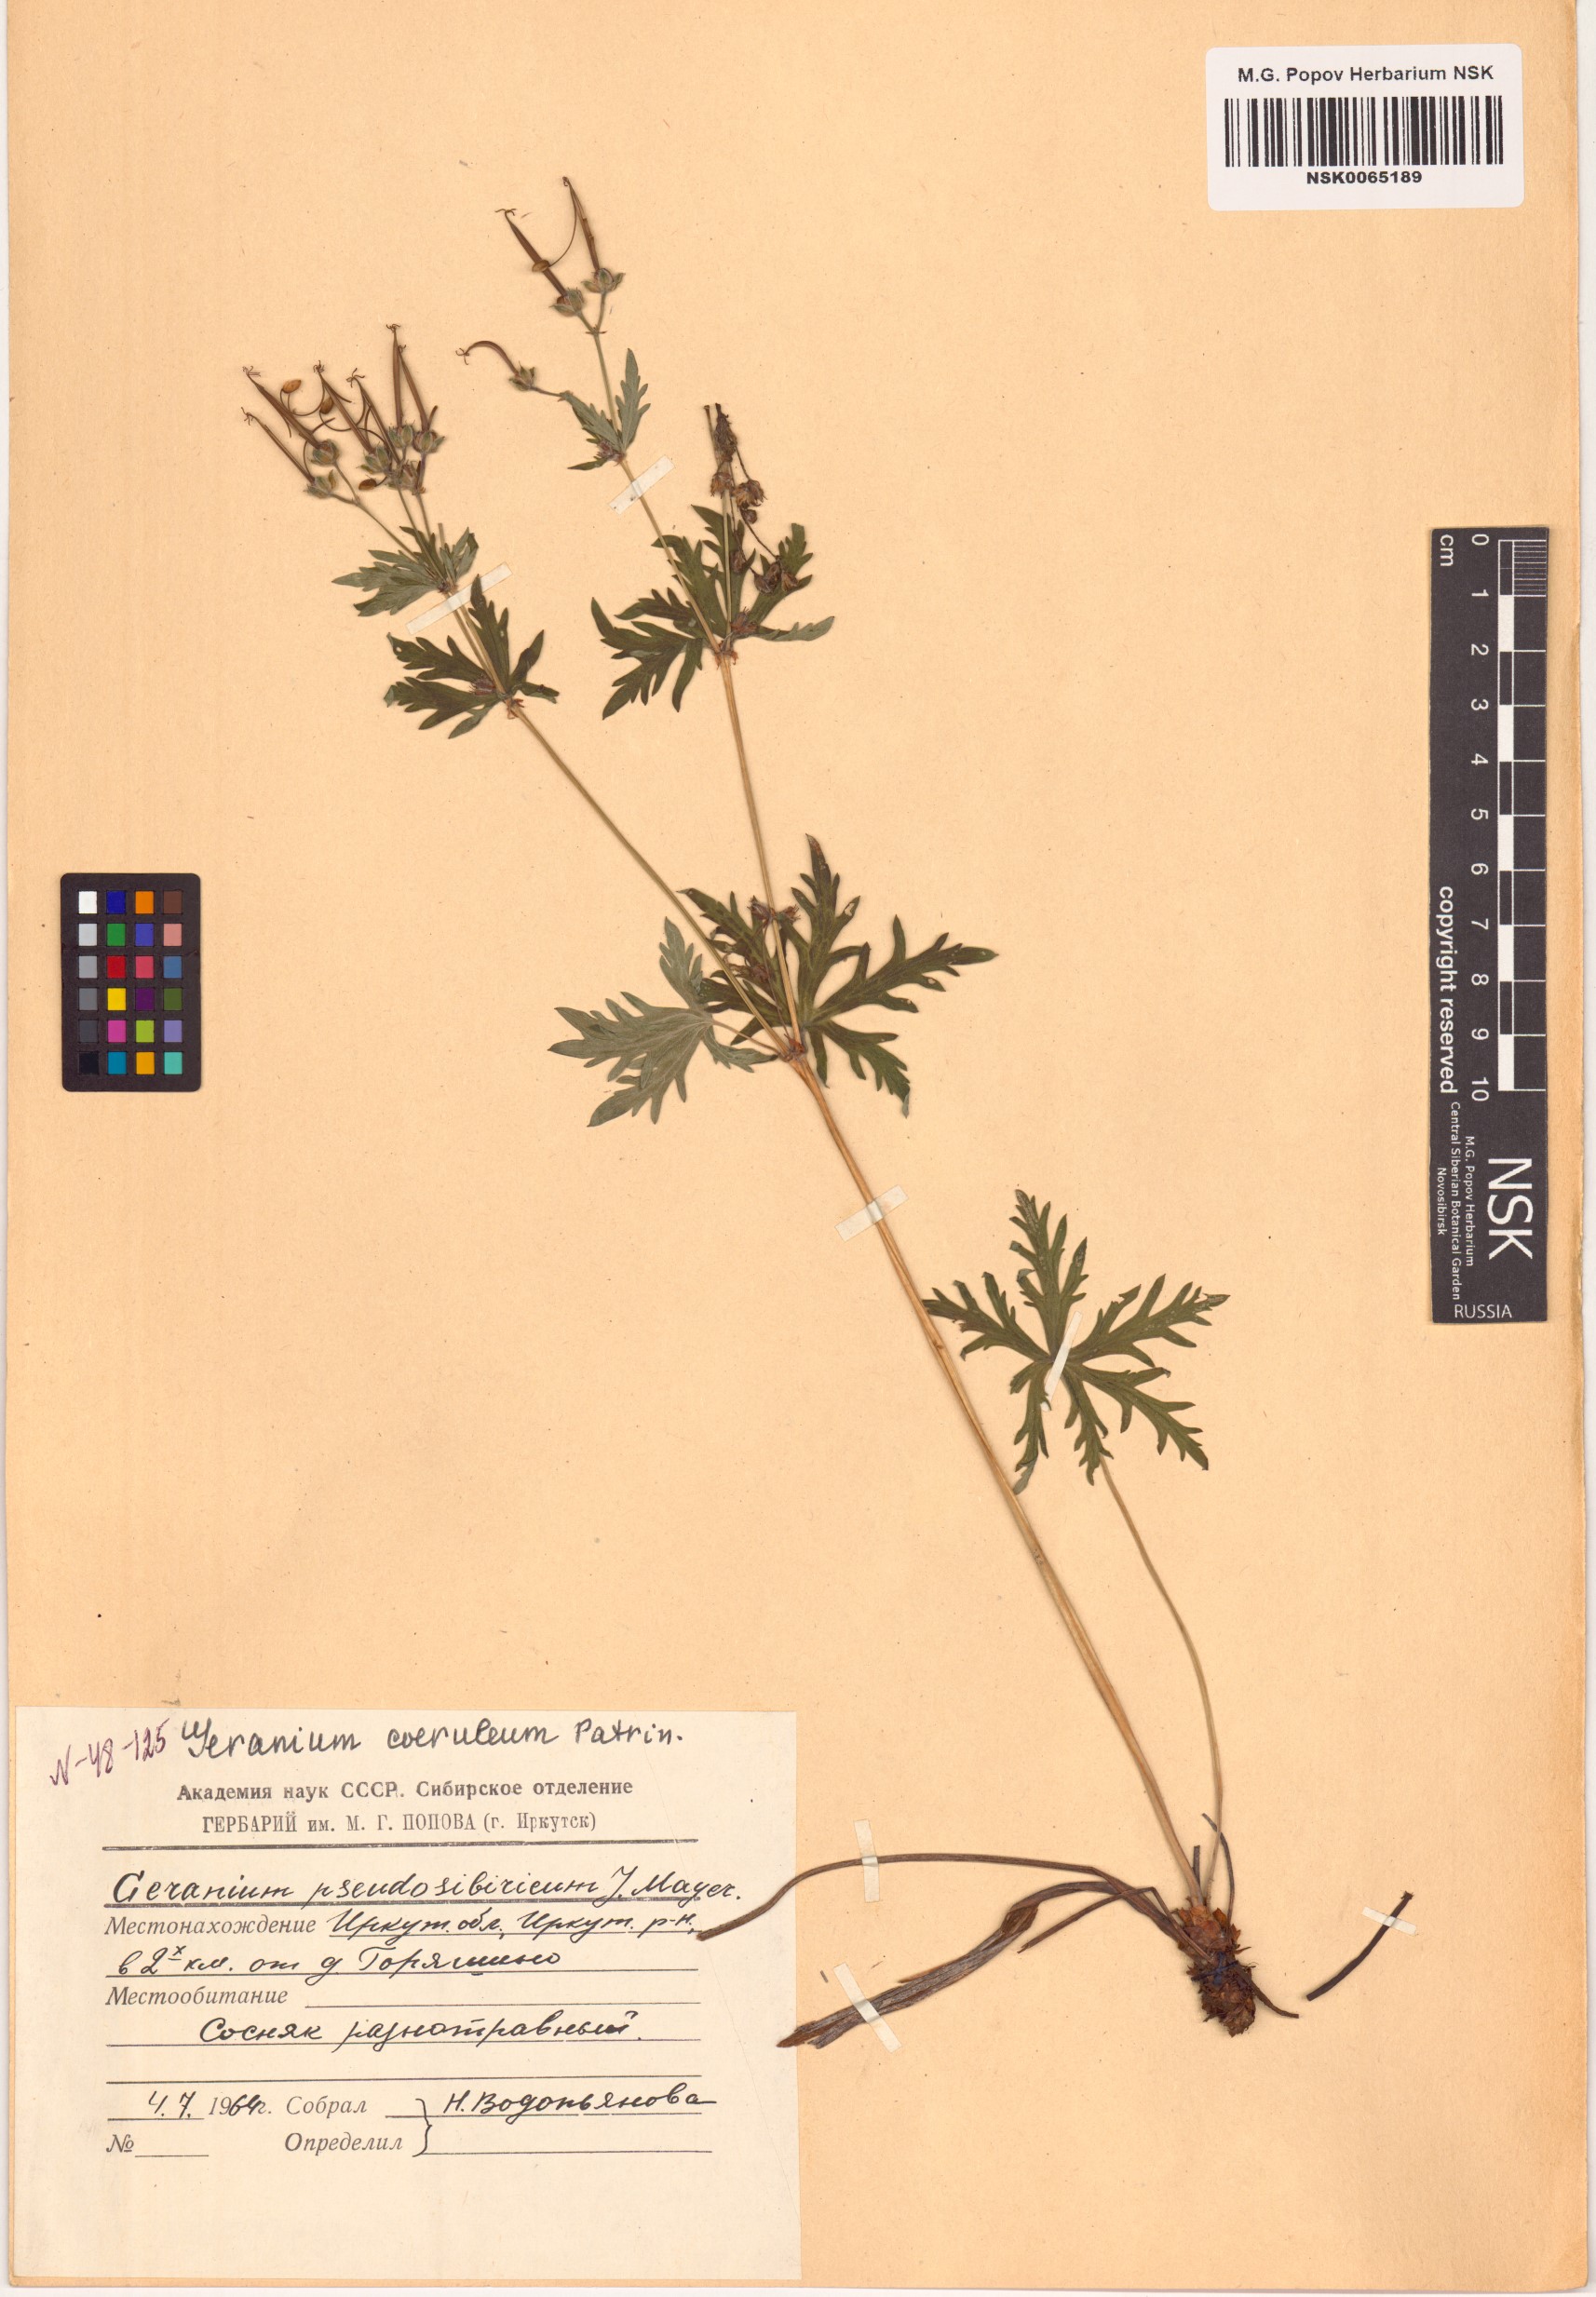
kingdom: Plantae
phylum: Tracheophyta
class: Magnoliopsida
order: Geraniales
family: Geraniaceae
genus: Geranium
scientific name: Geranium pseudosibiricum
